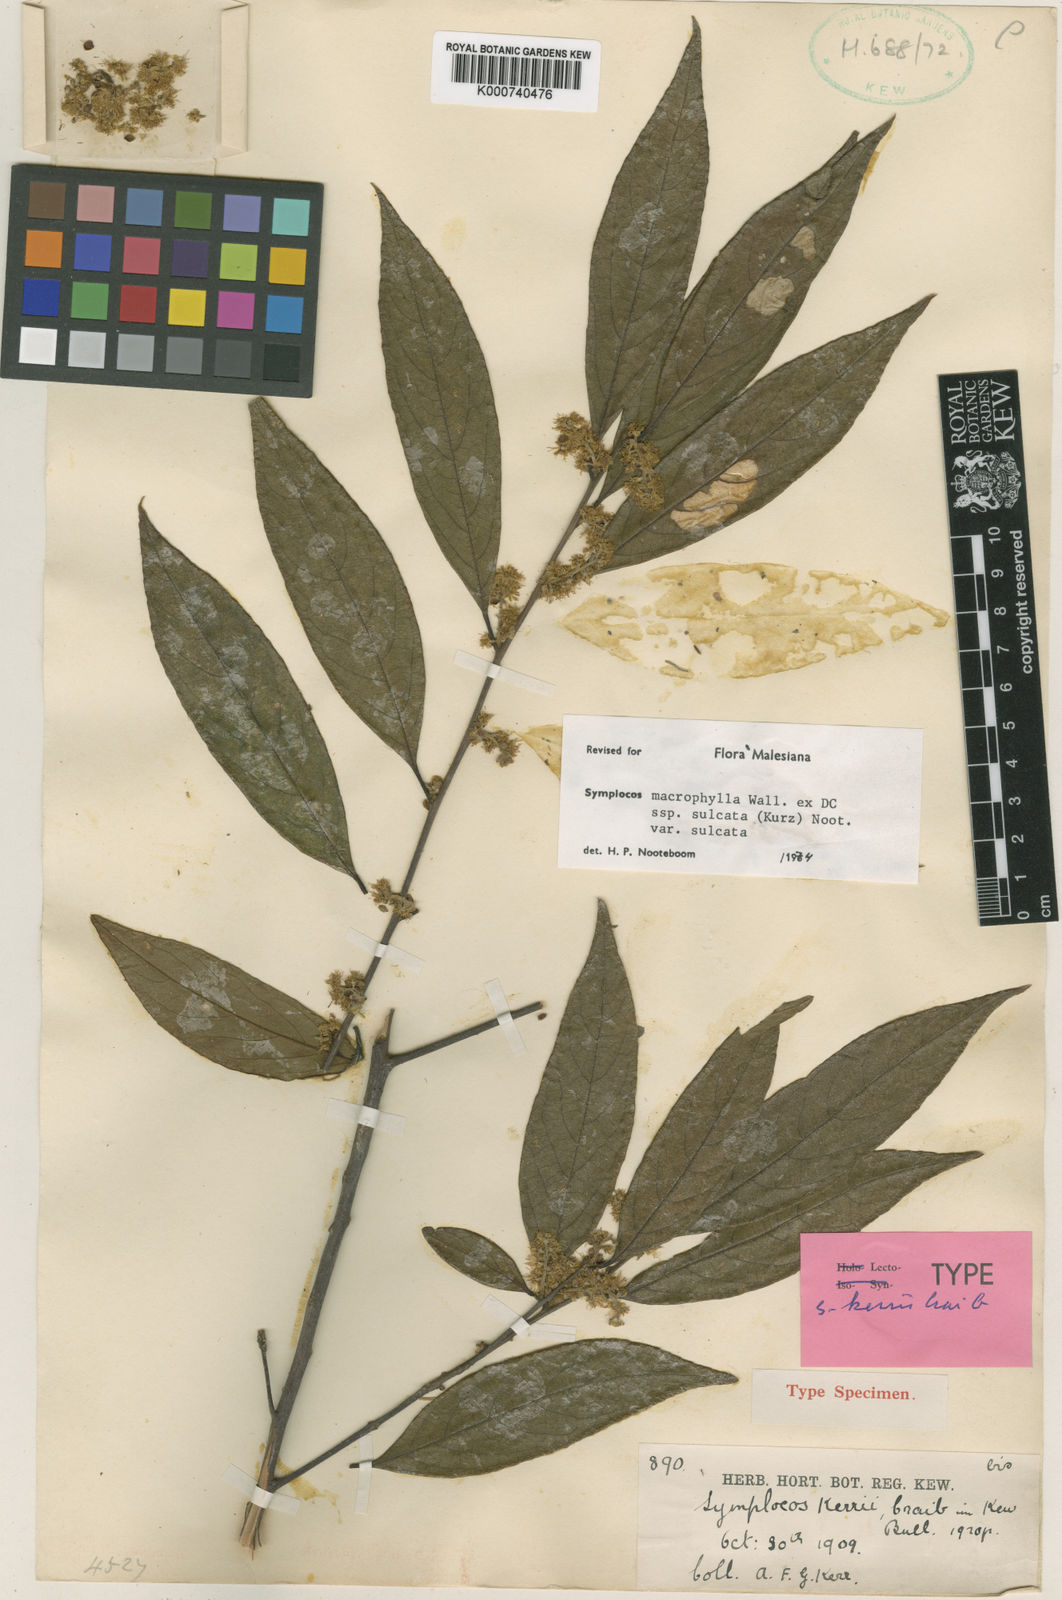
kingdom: Plantae
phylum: Tracheophyta
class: Magnoliopsida
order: Ericales
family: Symplocaceae
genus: Symplocos
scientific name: Symplocos sulcata
